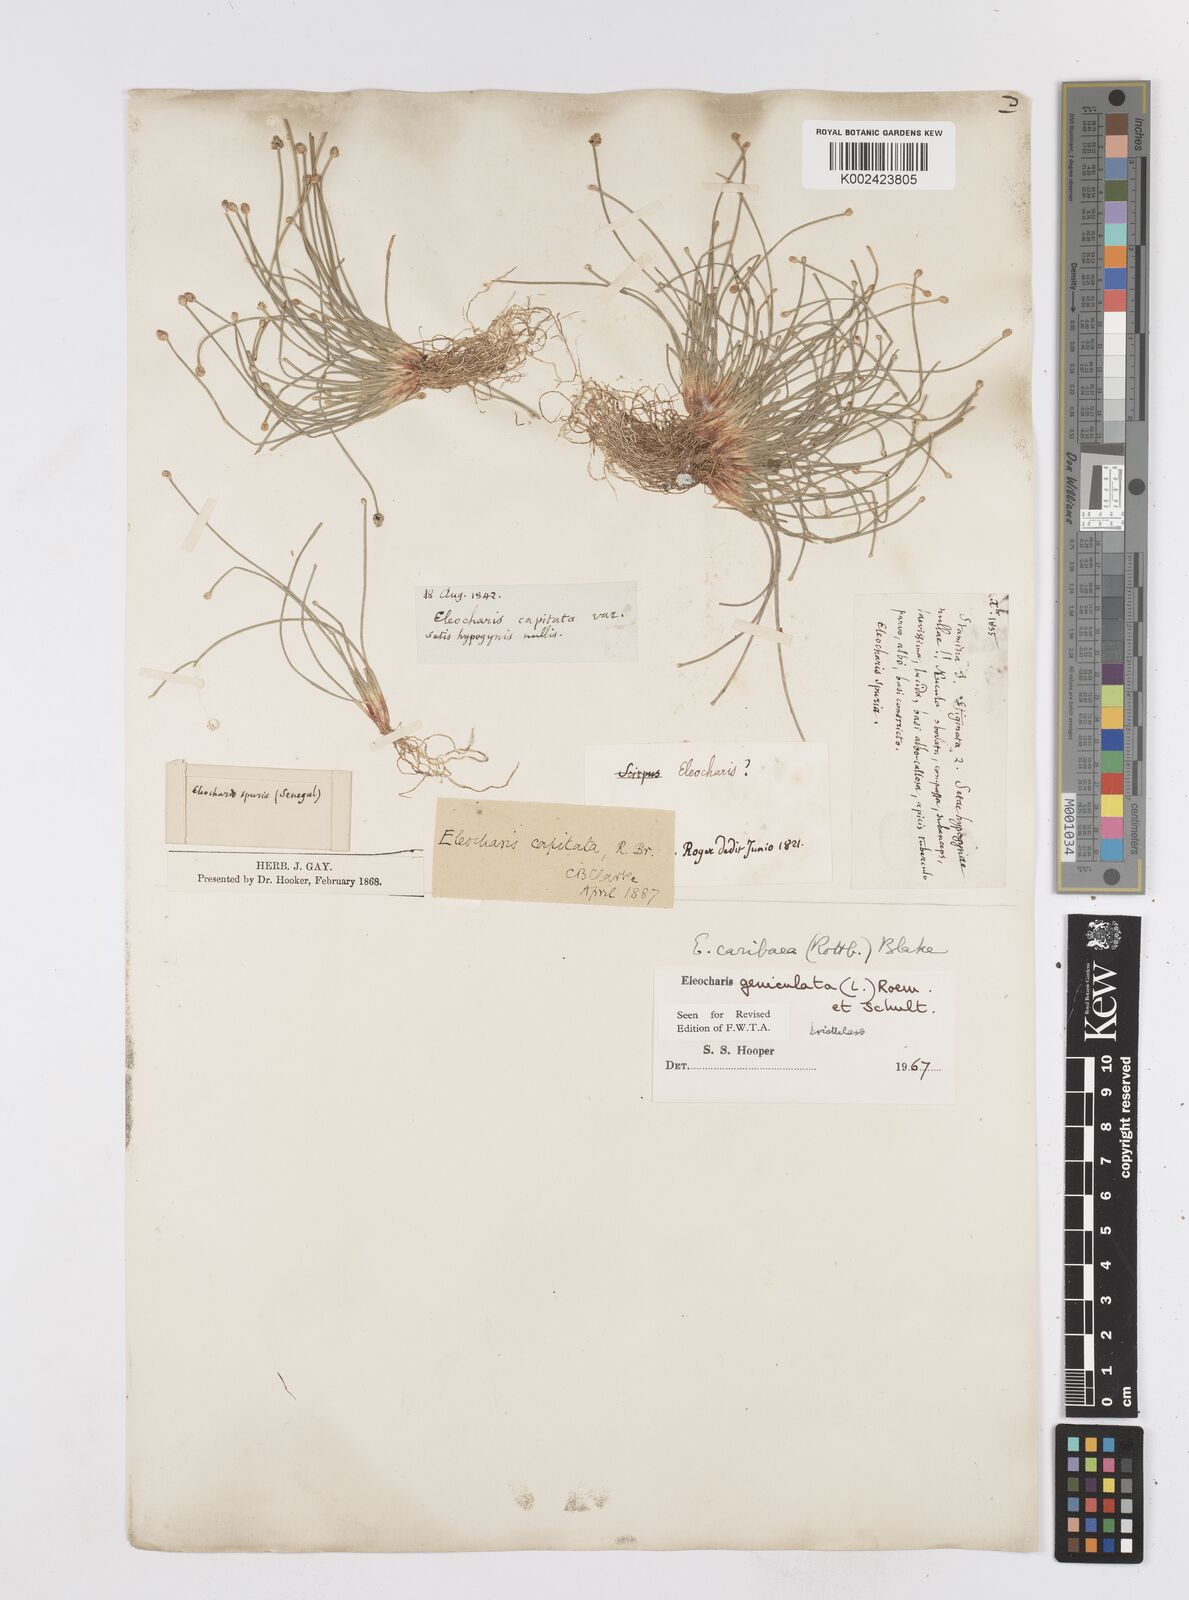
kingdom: Plantae
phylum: Tracheophyta
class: Liliopsida
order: Poales
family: Cyperaceae
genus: Eleocharis
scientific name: Eleocharis geniculata
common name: Canada spikesedge
